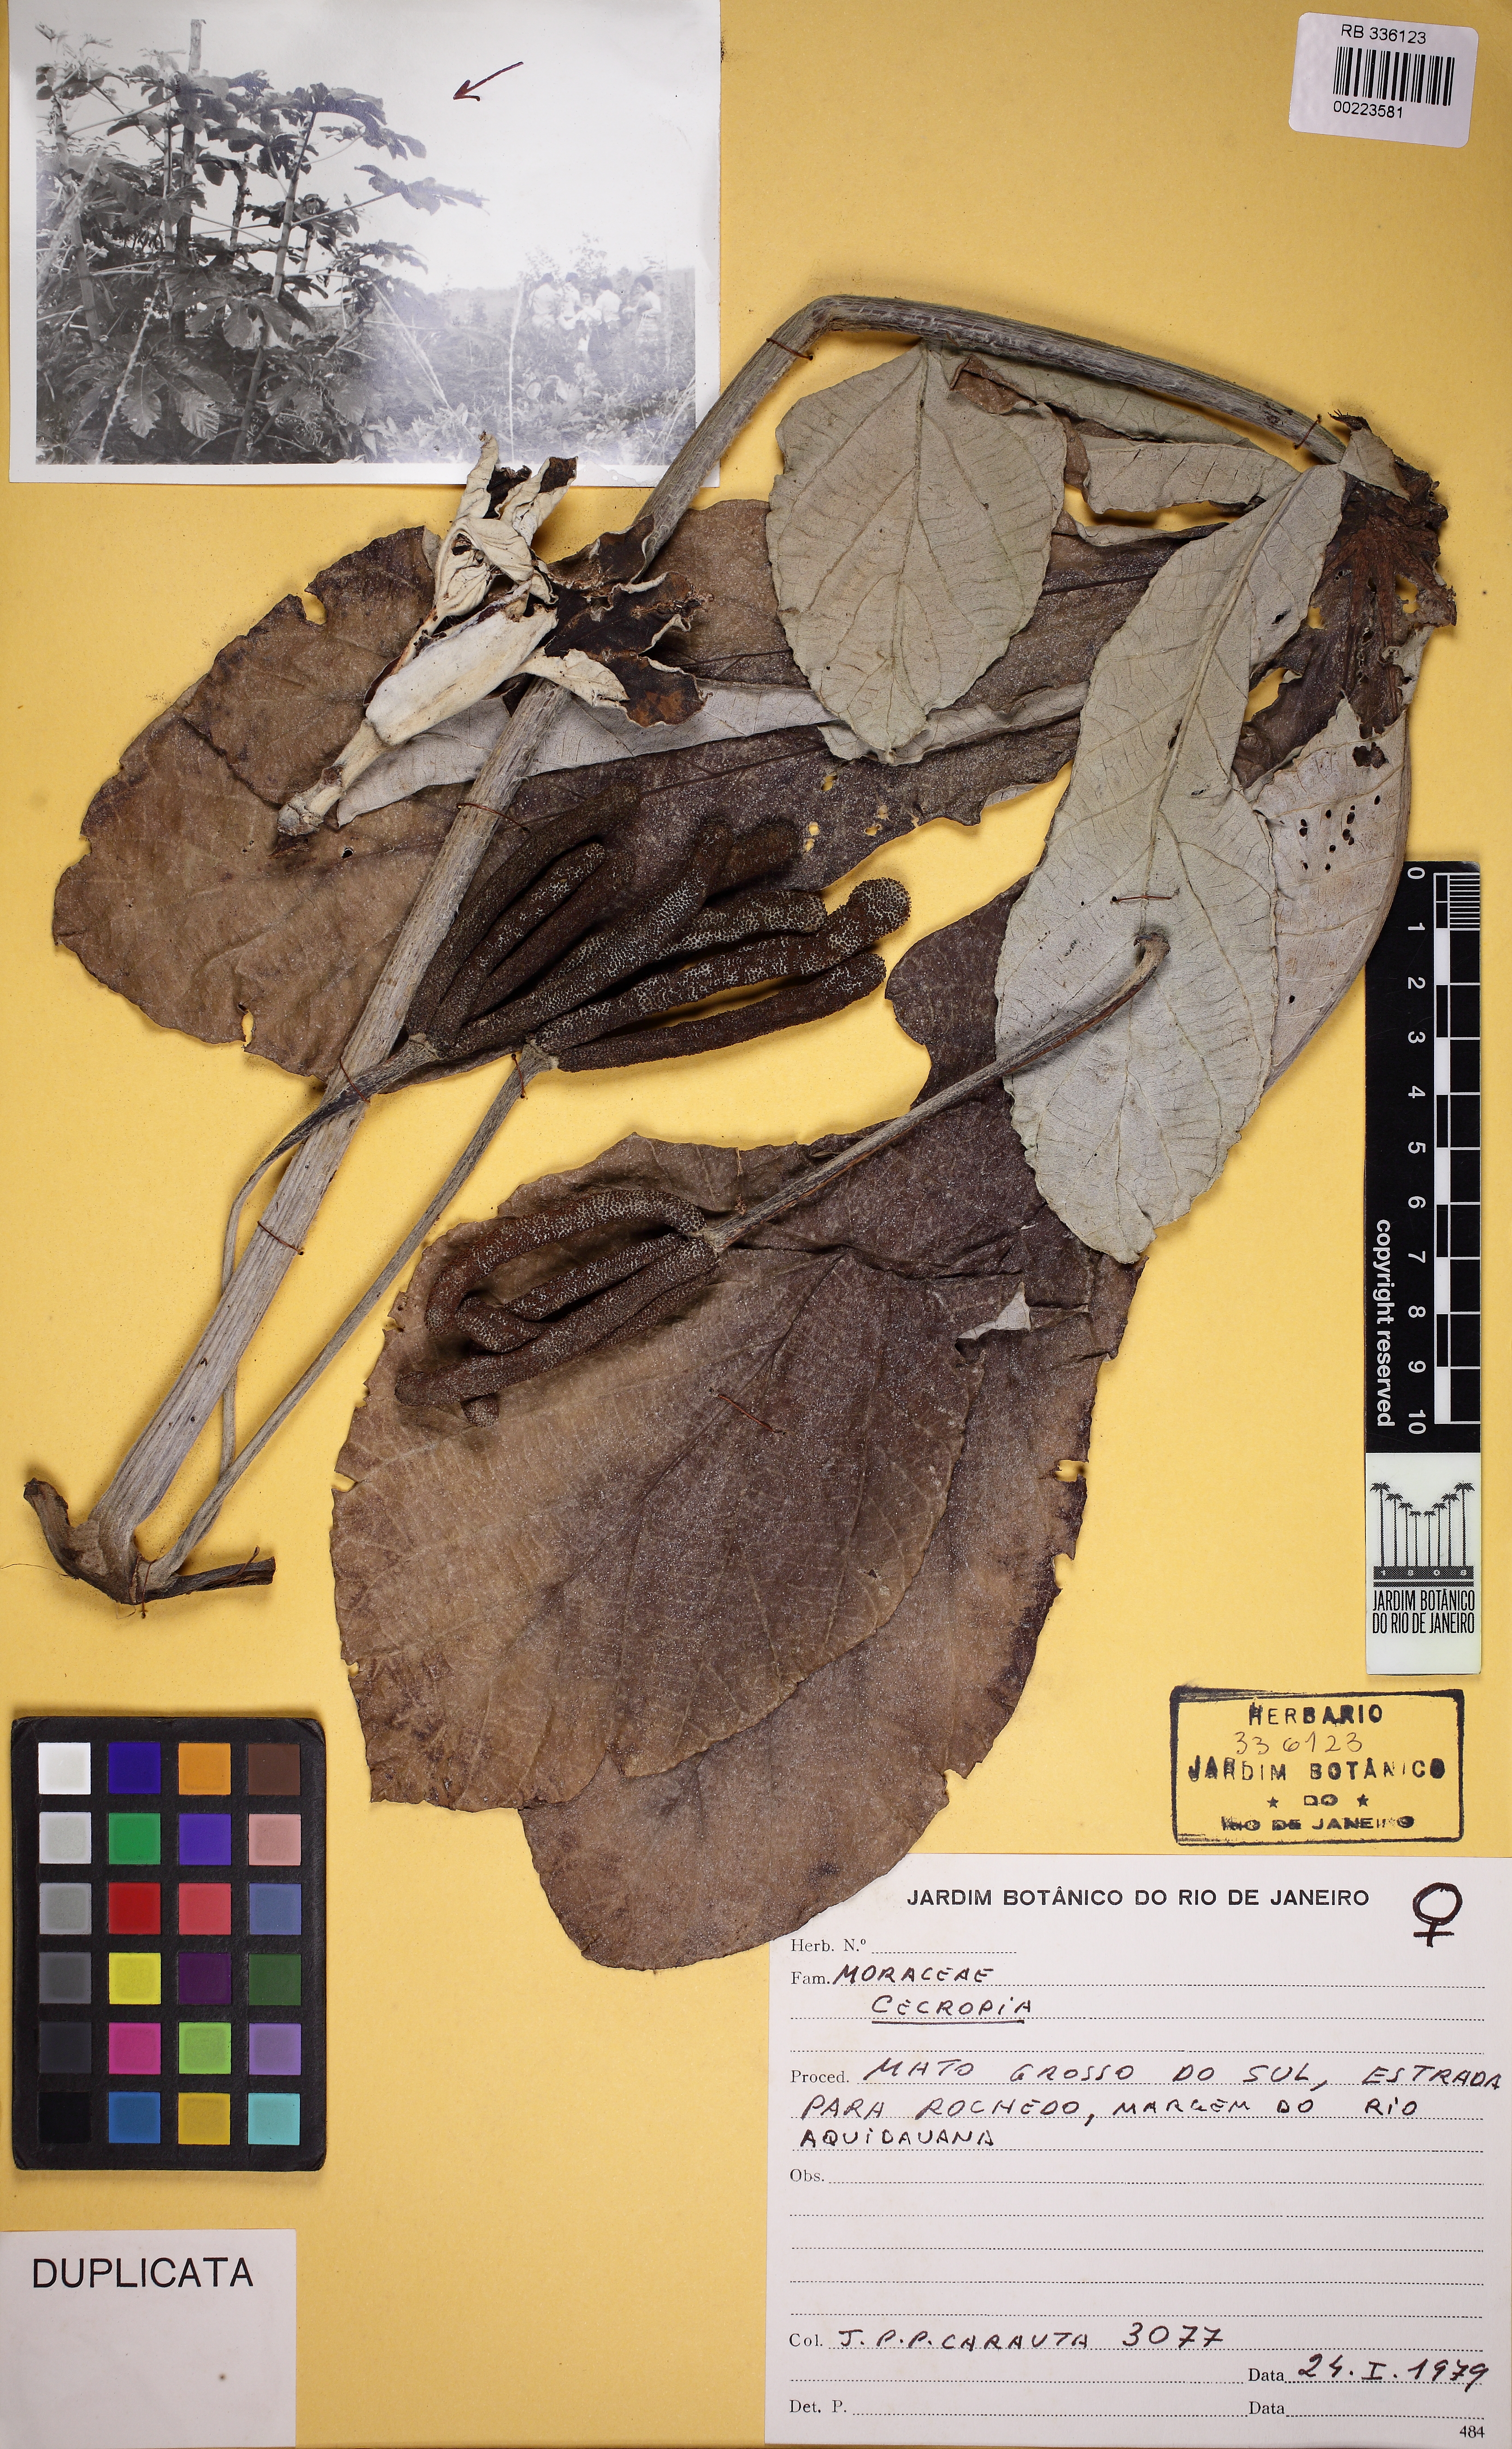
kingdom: Plantae
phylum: Tracheophyta
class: Magnoliopsida
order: Rosales
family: Urticaceae
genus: Cecropia
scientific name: Cecropia pachystachya
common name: Ambay pumpwood
